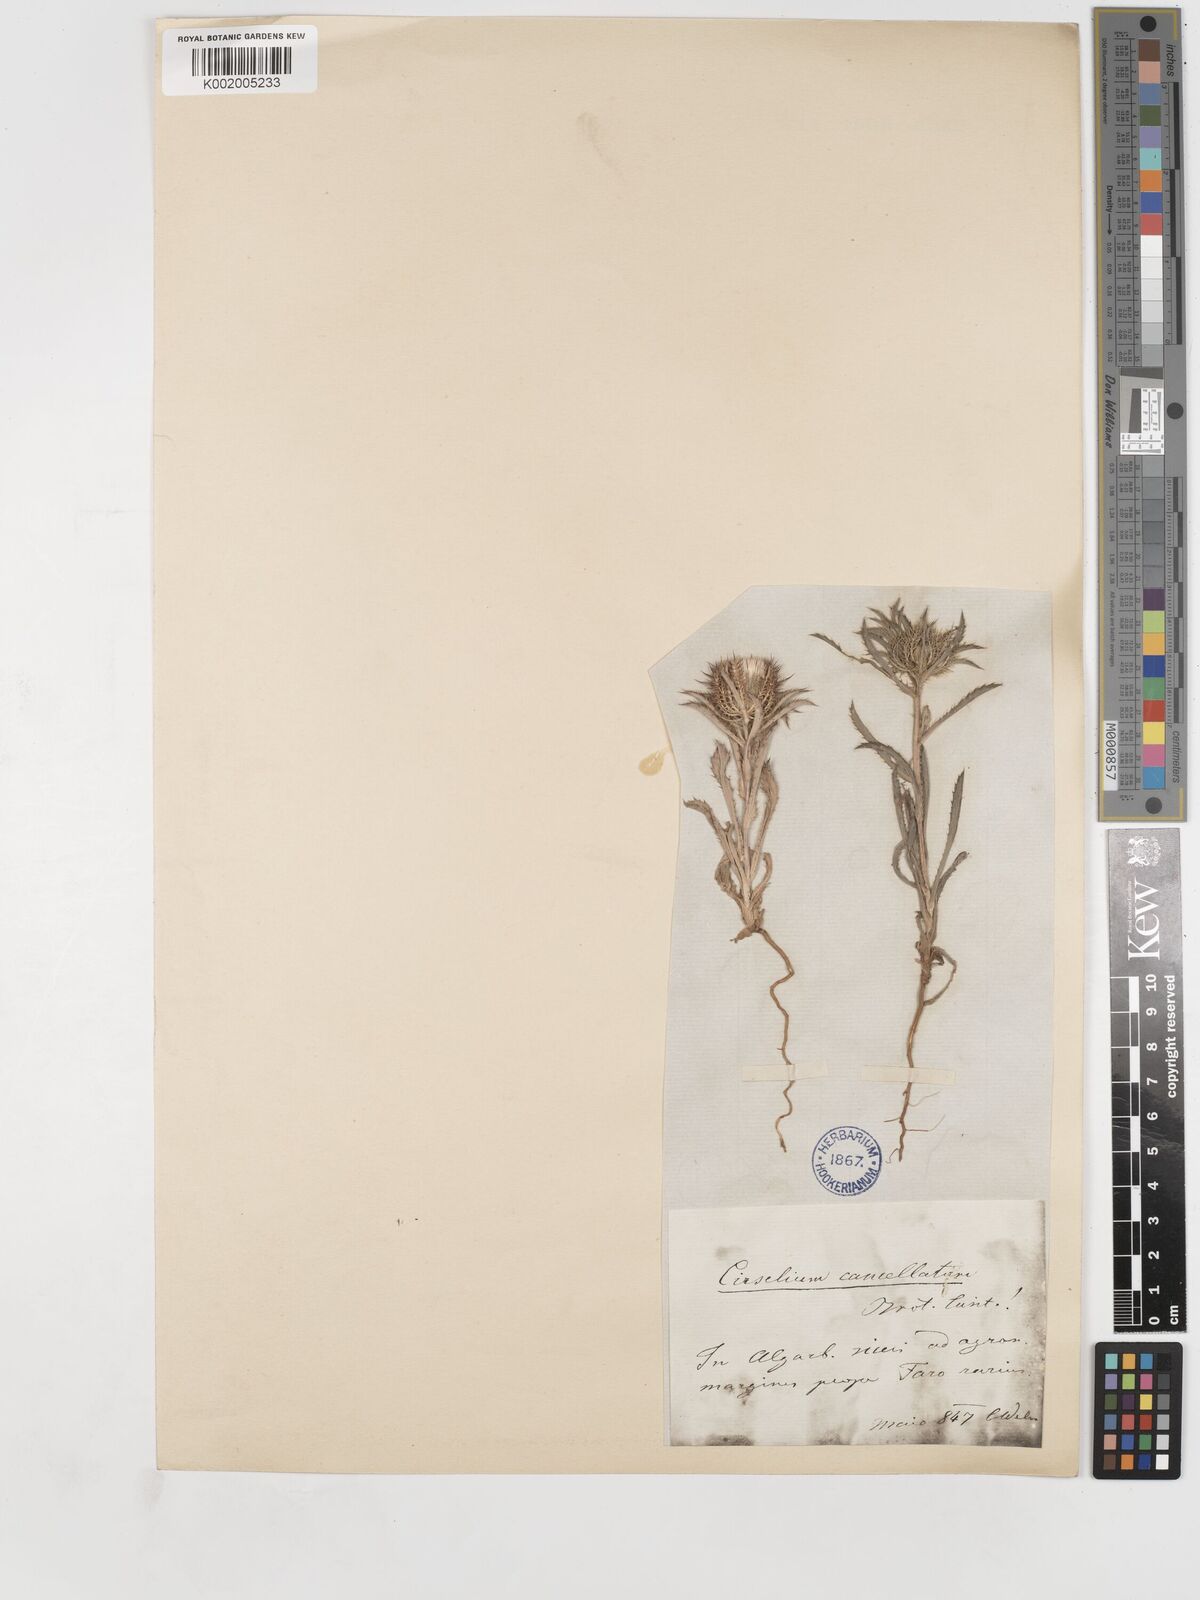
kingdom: Plantae
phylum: Tracheophyta
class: Magnoliopsida
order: Asterales
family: Asteraceae
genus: Atractylis
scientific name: Atractylis cancellata
